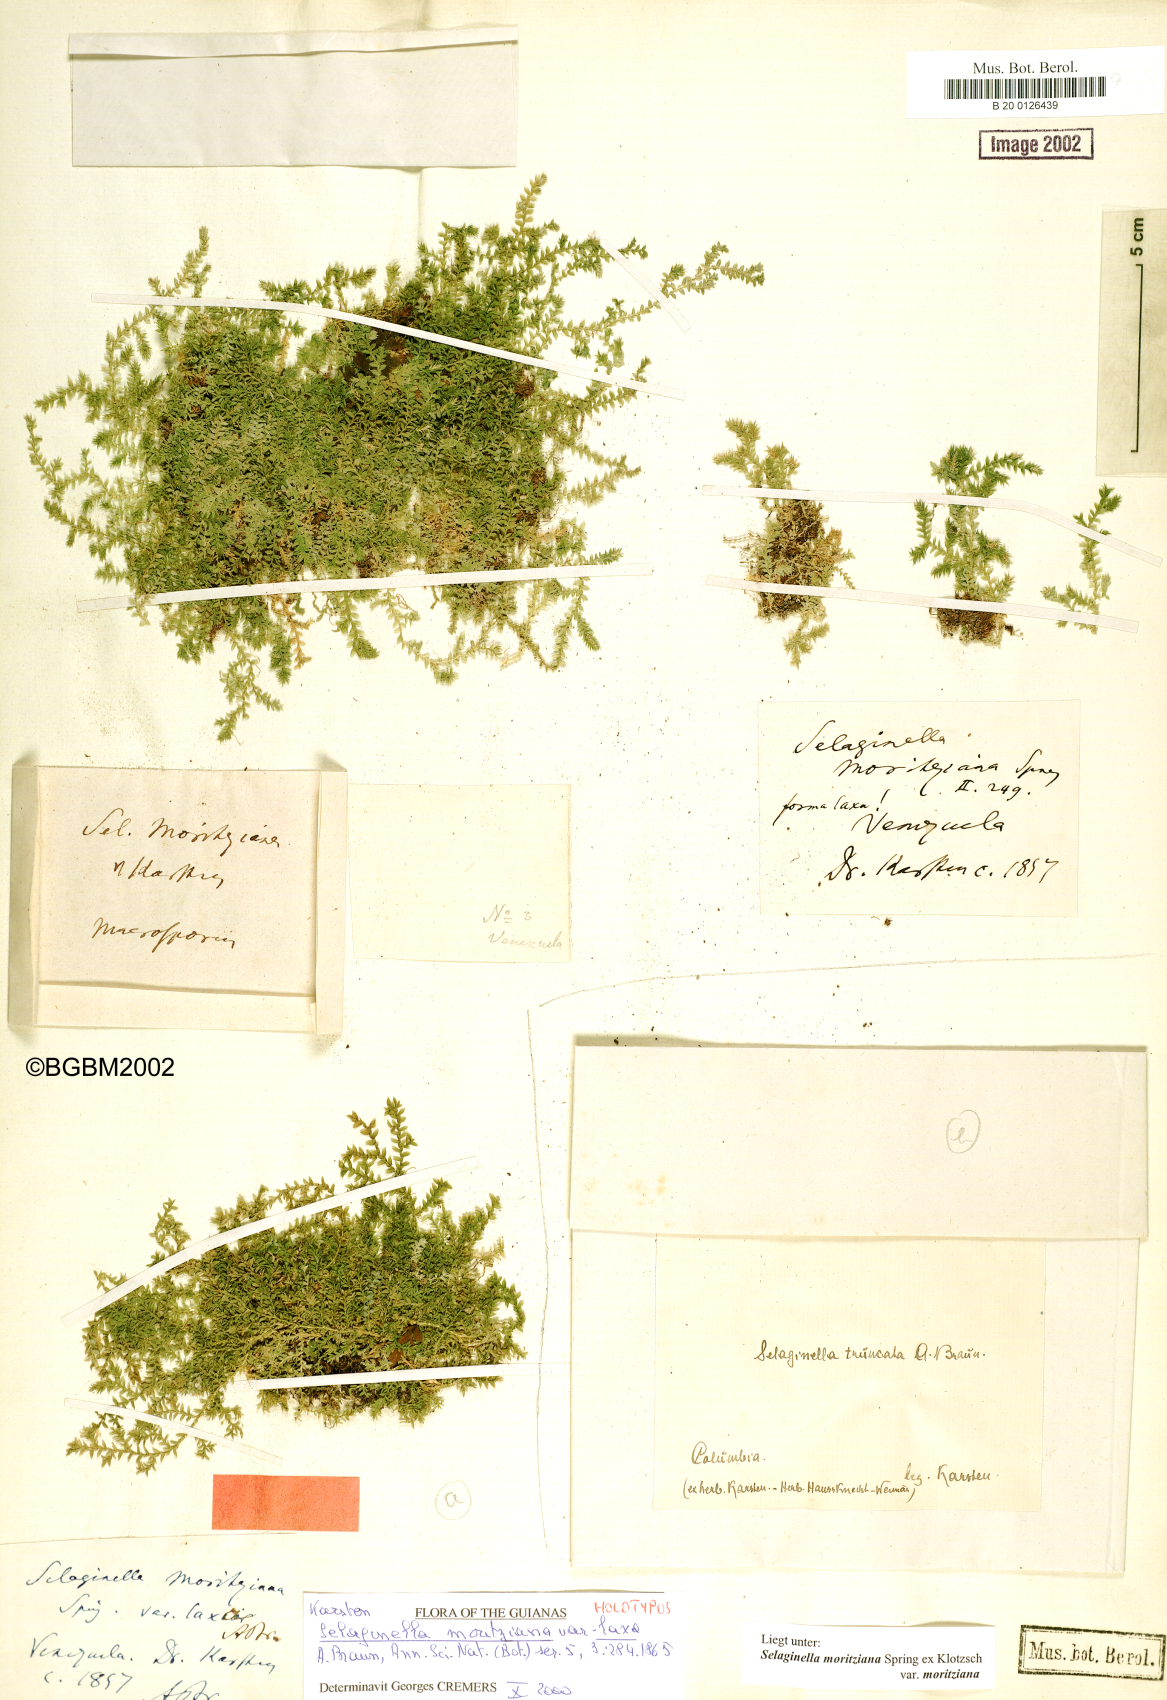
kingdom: Plantae
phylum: Tracheophyta
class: Lycopodiopsida
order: Selaginellales
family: Selaginellaceae
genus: Selaginella
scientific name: Selaginella flacca
